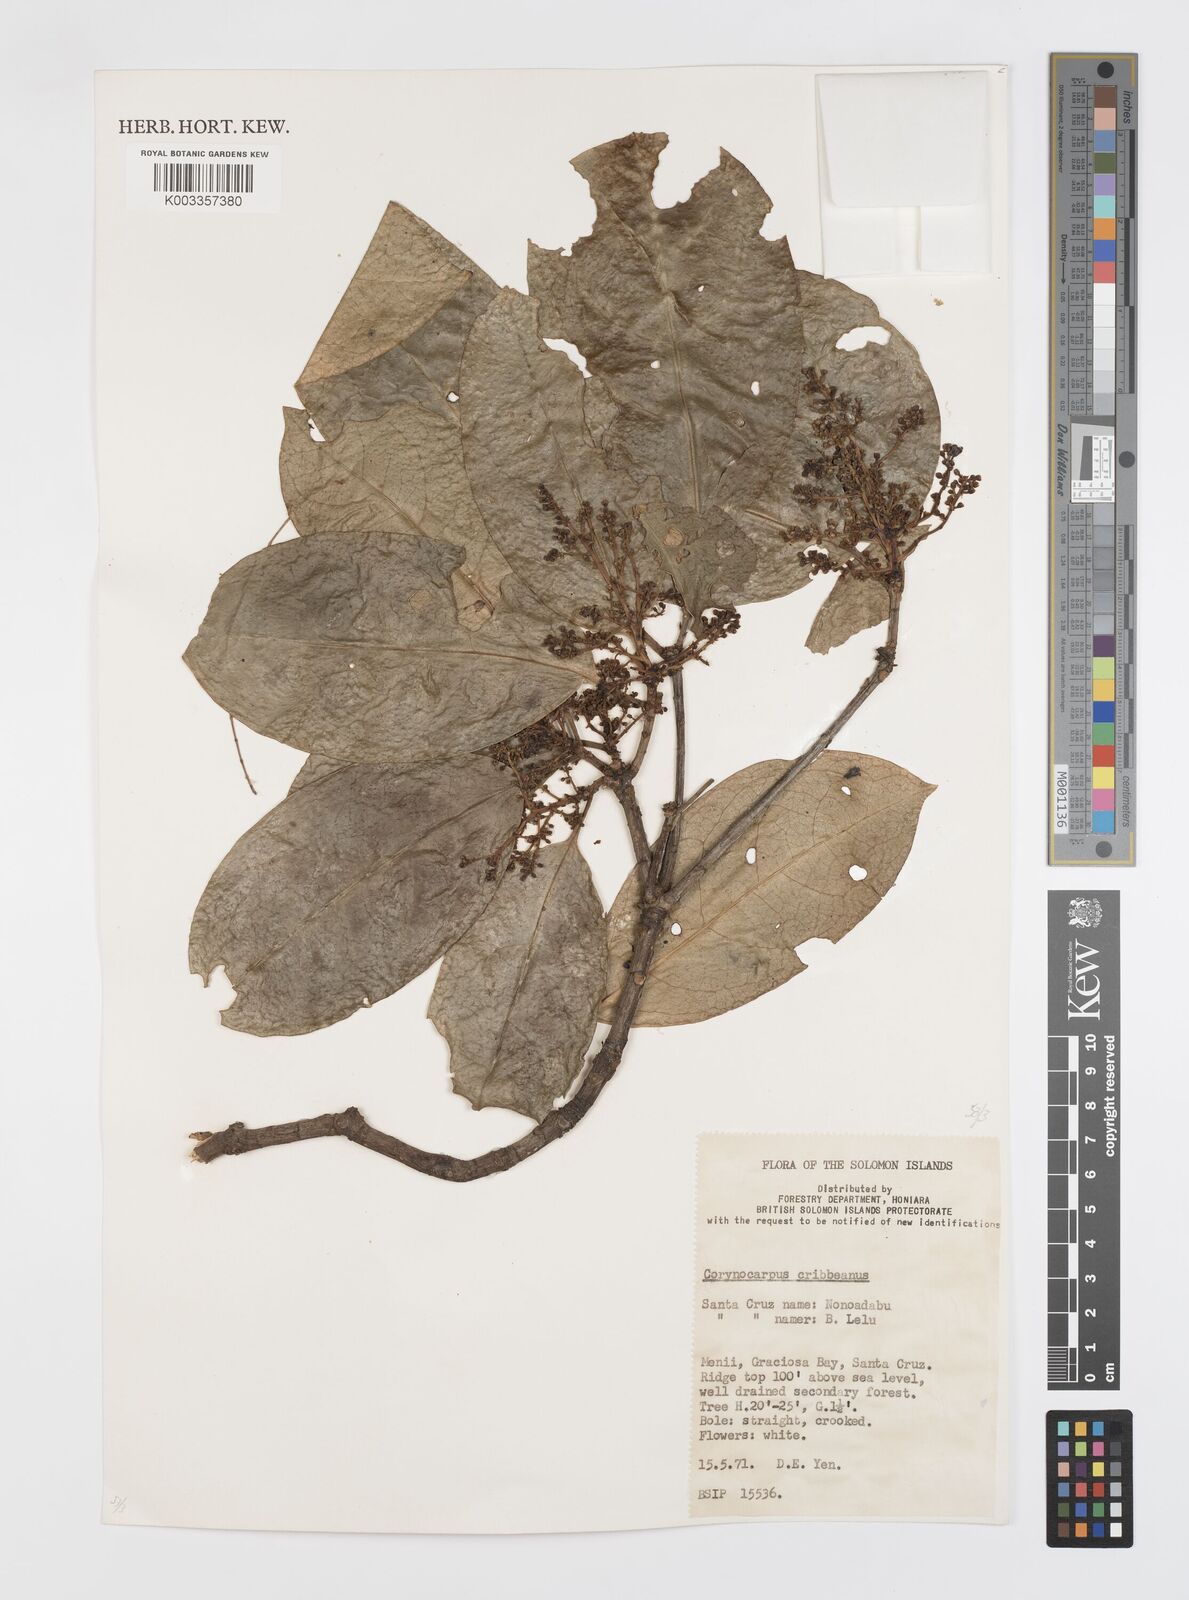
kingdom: Plantae
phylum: Tracheophyta
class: Magnoliopsida
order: Cucurbitales
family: Corynocarpaceae
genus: Corynocarpus
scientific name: Corynocarpus similis
